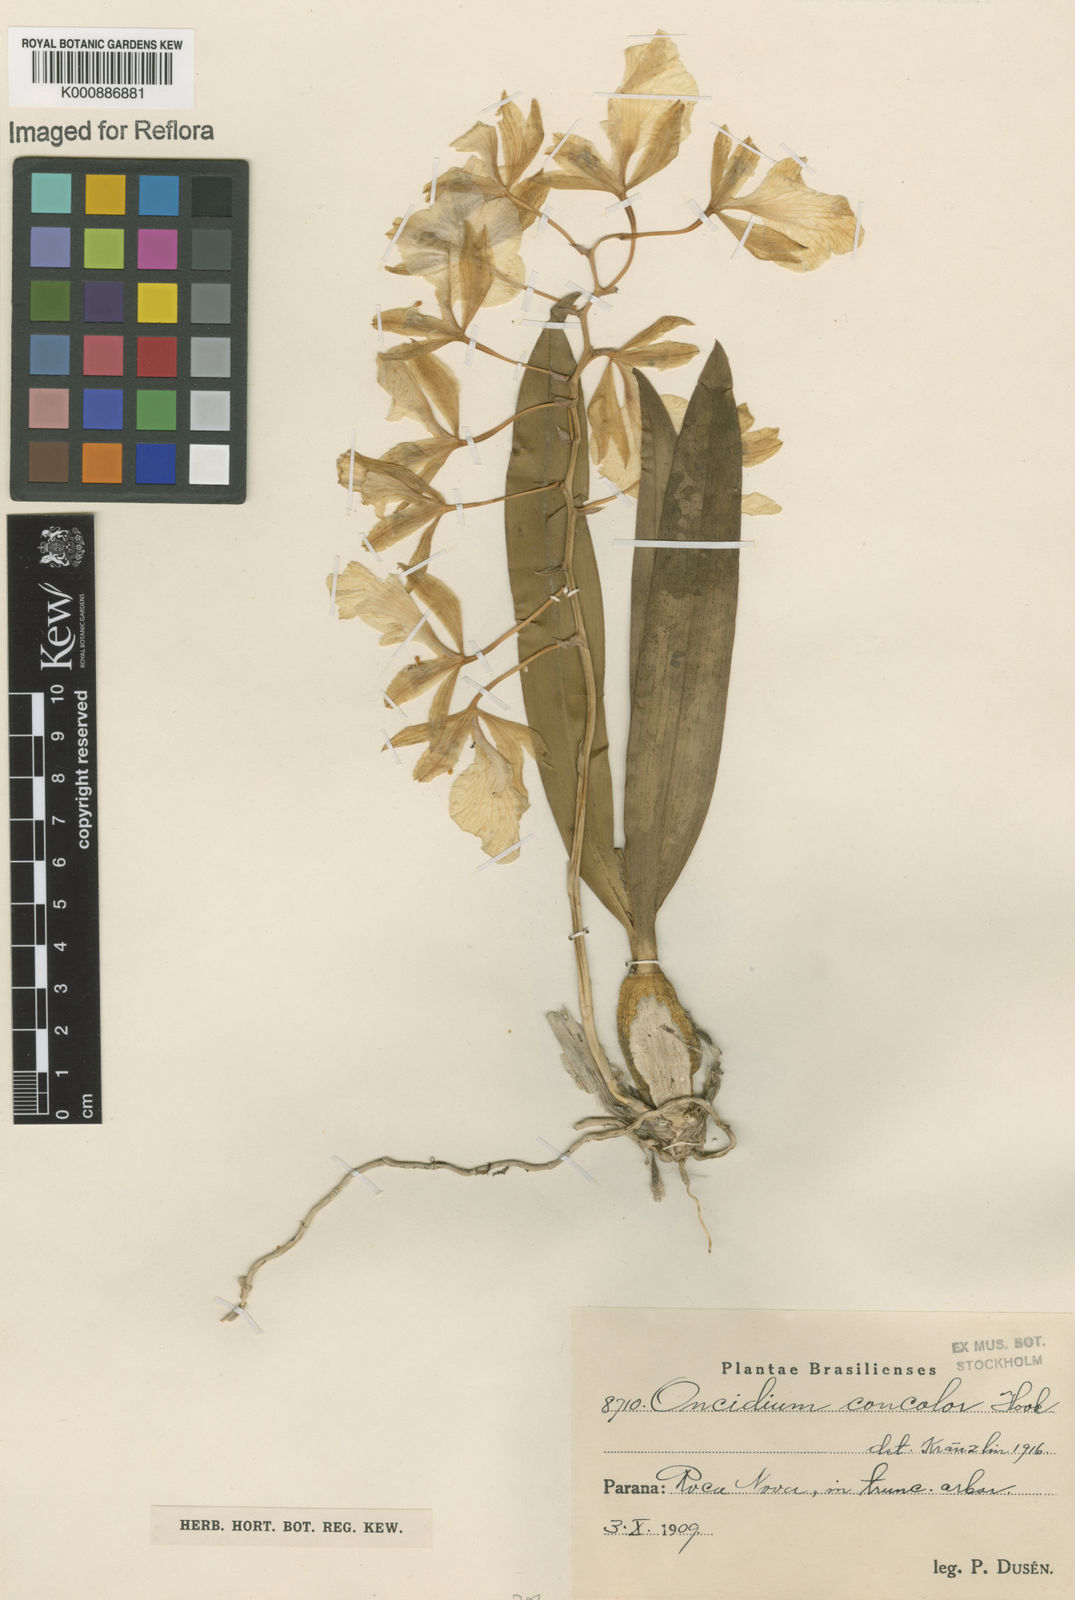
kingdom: Plantae
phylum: Tracheophyta
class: Liliopsida
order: Asparagales
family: Orchidaceae
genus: Gomesa
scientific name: Gomesa concolor
